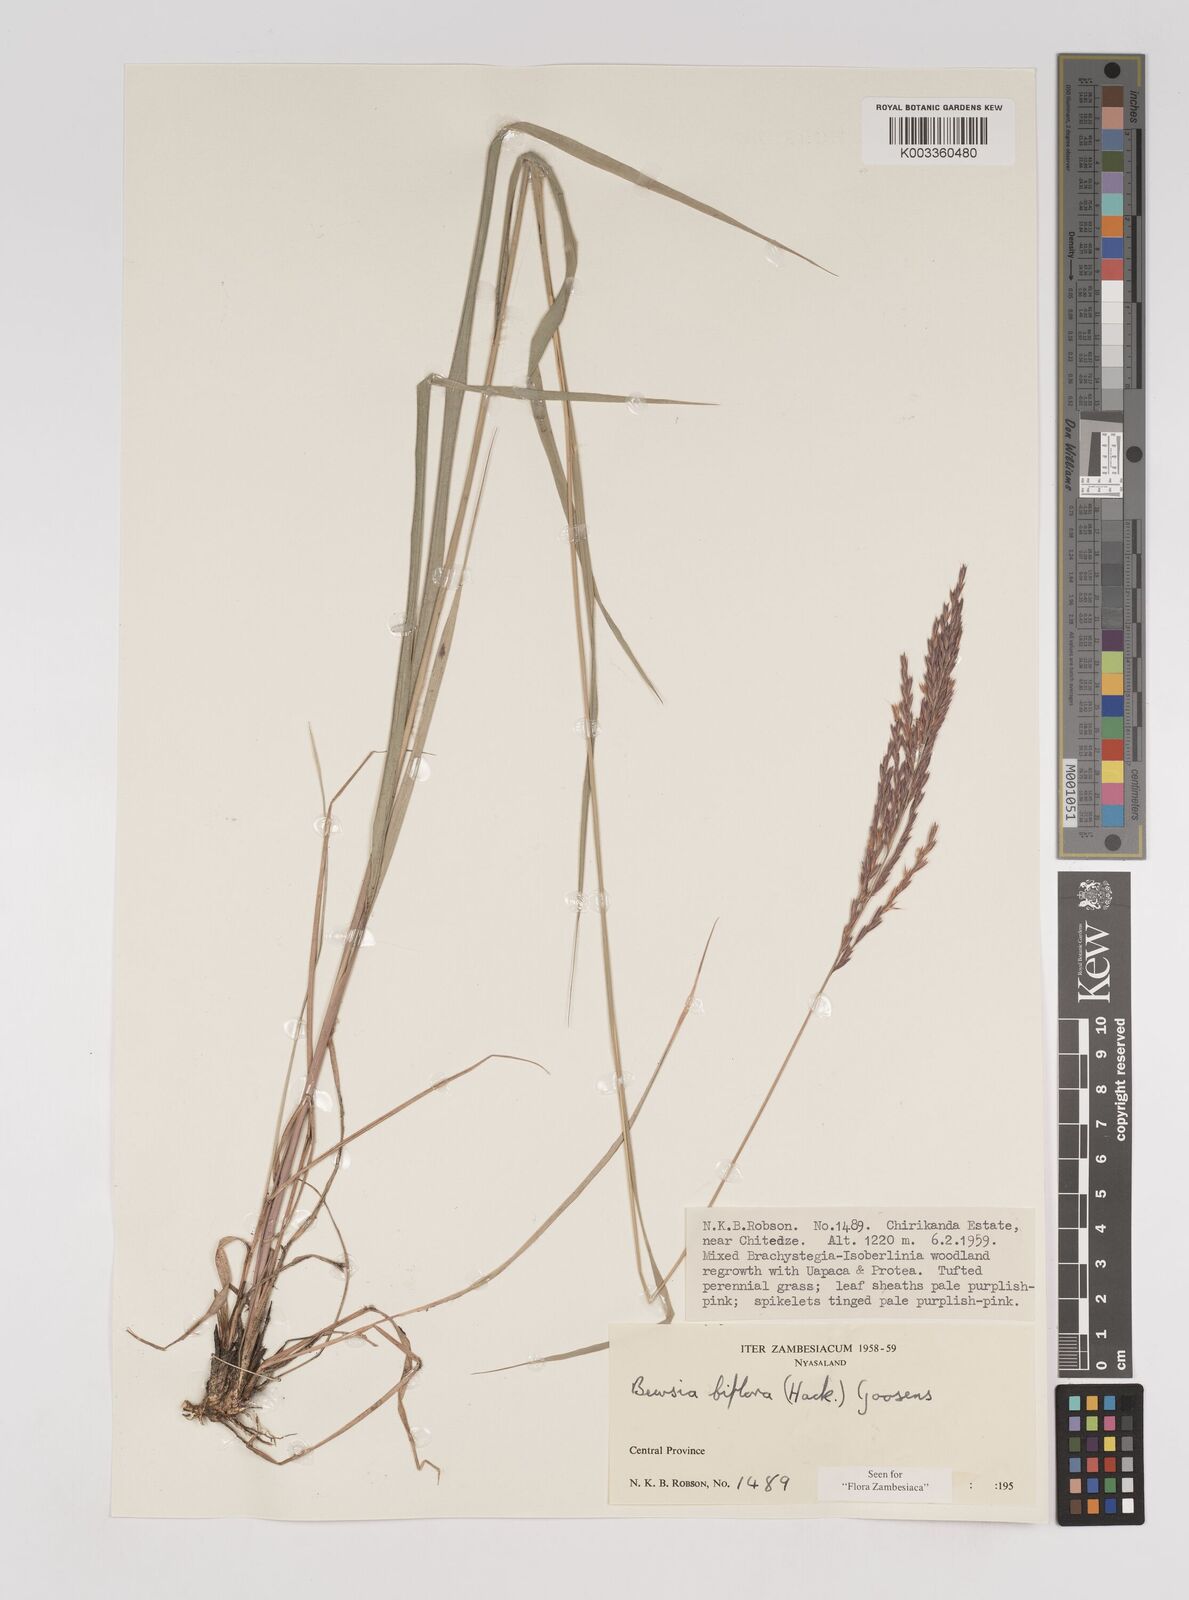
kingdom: Plantae
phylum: Tracheophyta
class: Liliopsida
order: Poales
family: Poaceae
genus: Bewsia
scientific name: Bewsia biflora
